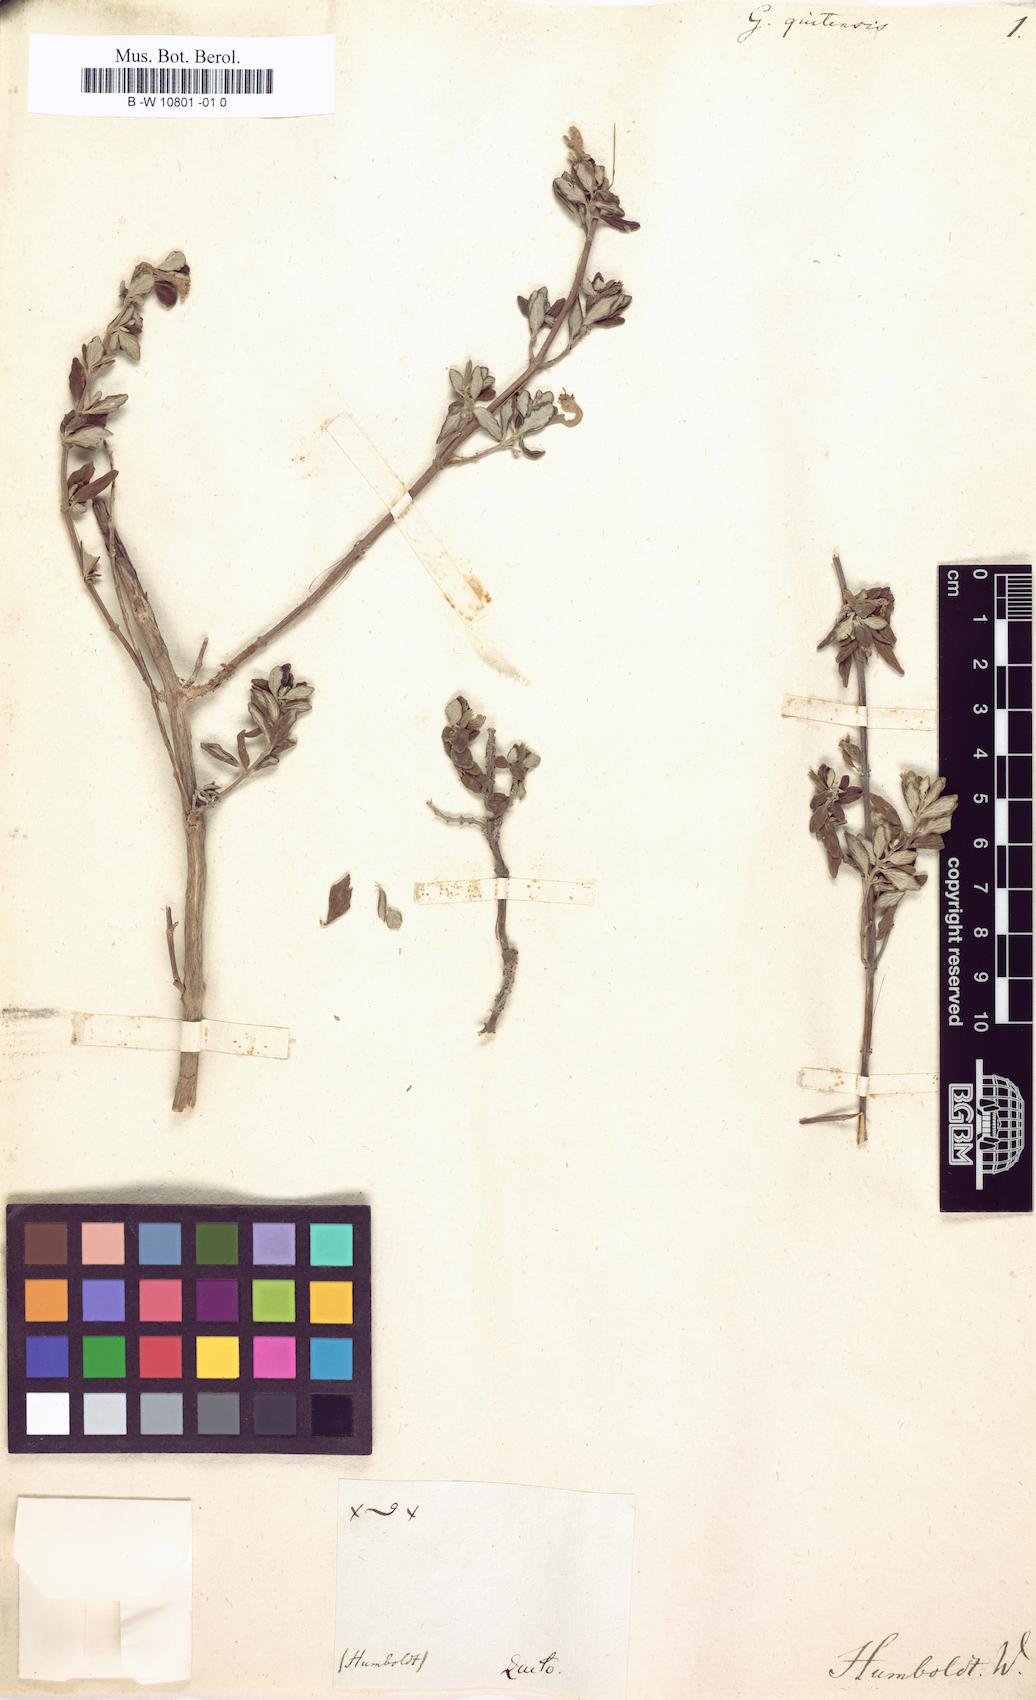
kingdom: Plantae
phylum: Tracheophyta
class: Magnoliopsida
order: Lamiales
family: Lamiaceae
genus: Clinopodium
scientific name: Clinopodium tomentosum
